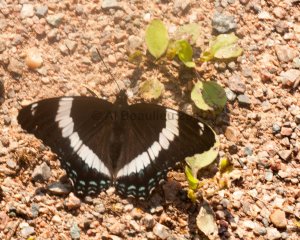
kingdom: Animalia
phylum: Arthropoda
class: Insecta
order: Lepidoptera
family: Nymphalidae
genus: Limenitis
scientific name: Limenitis arthemis
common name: Red-spotted Admiral
